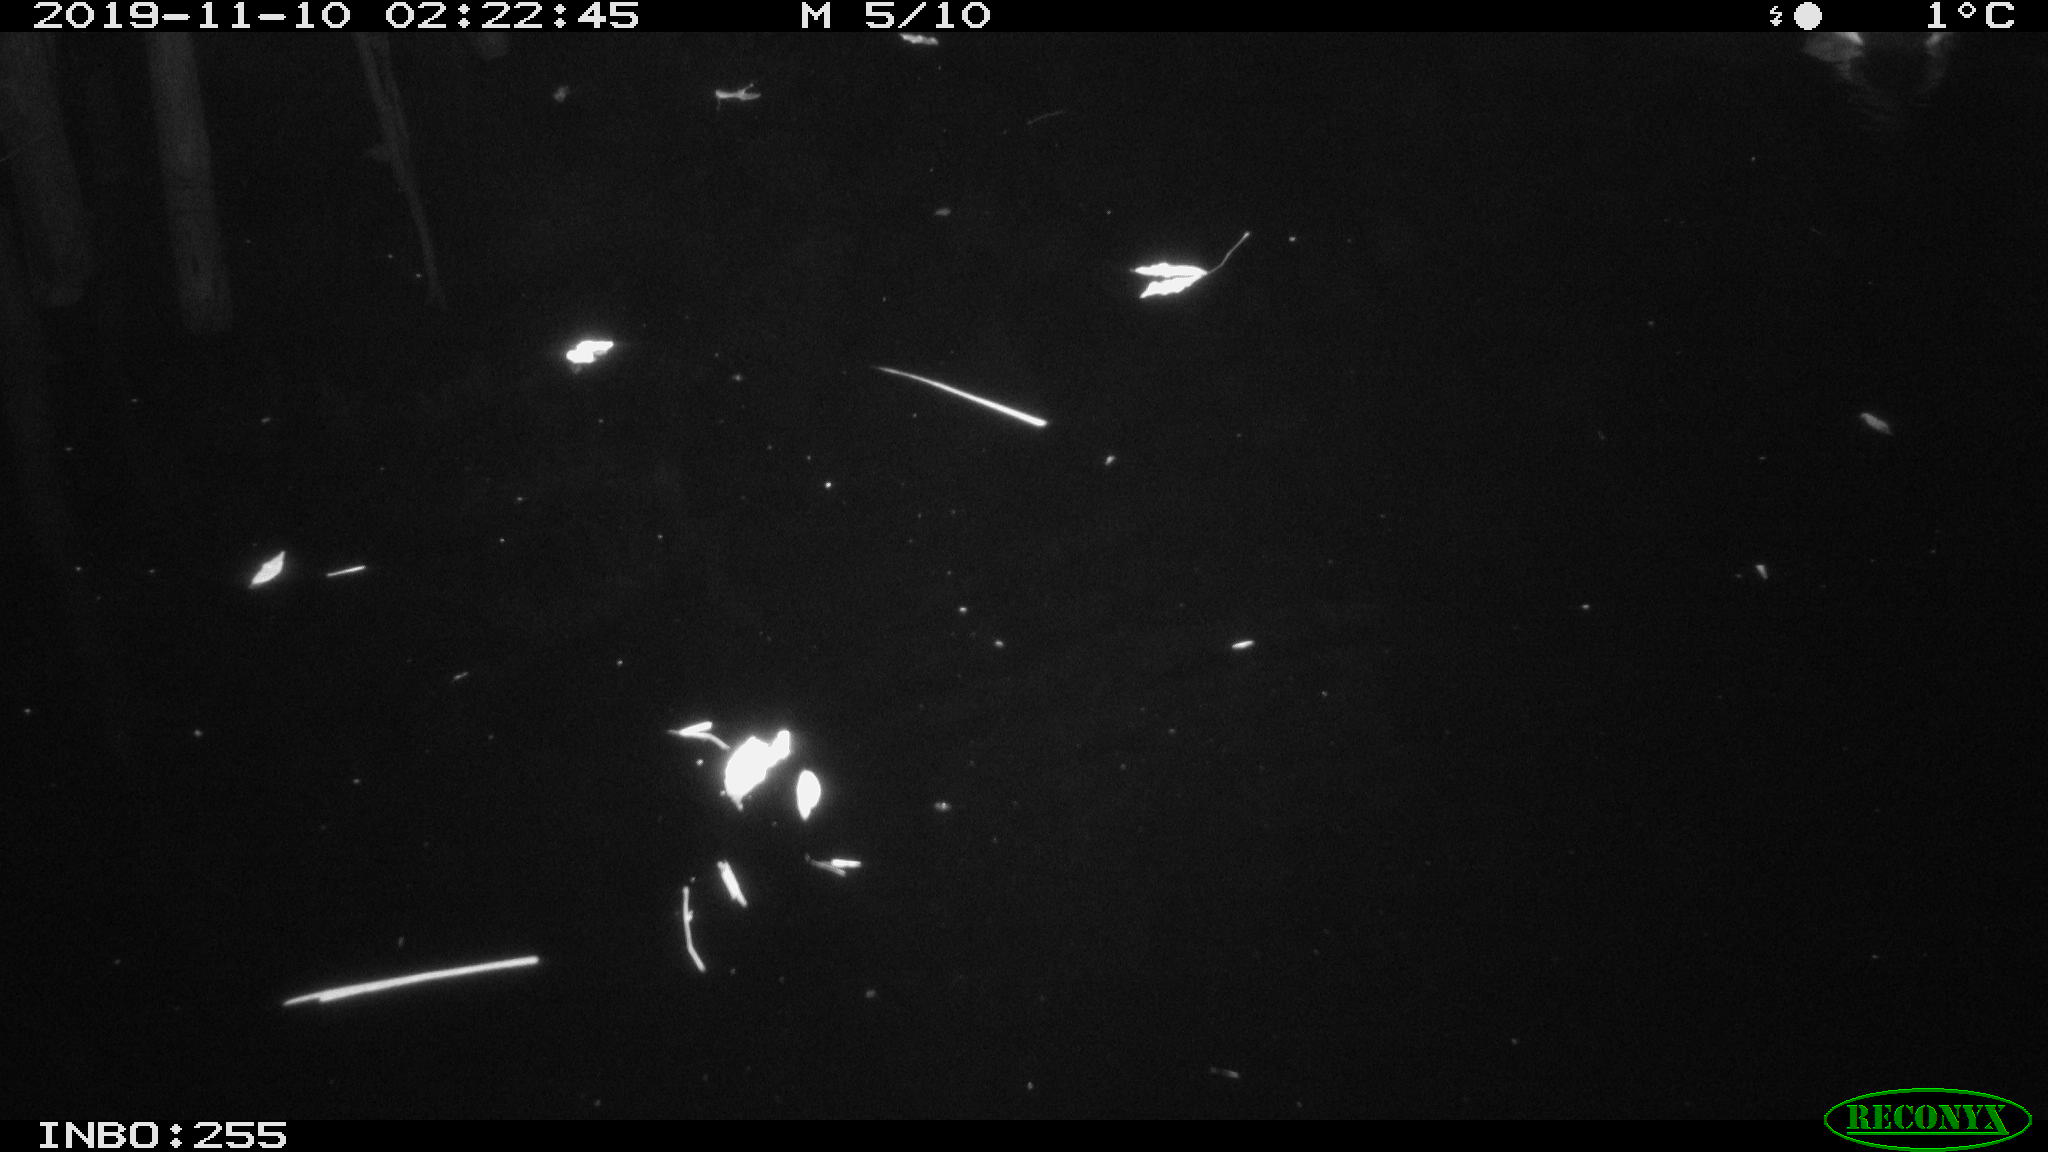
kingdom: Animalia
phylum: Chordata
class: Aves
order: Anseriformes
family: Anatidae
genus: Anas
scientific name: Anas platyrhynchos
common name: Mallard
